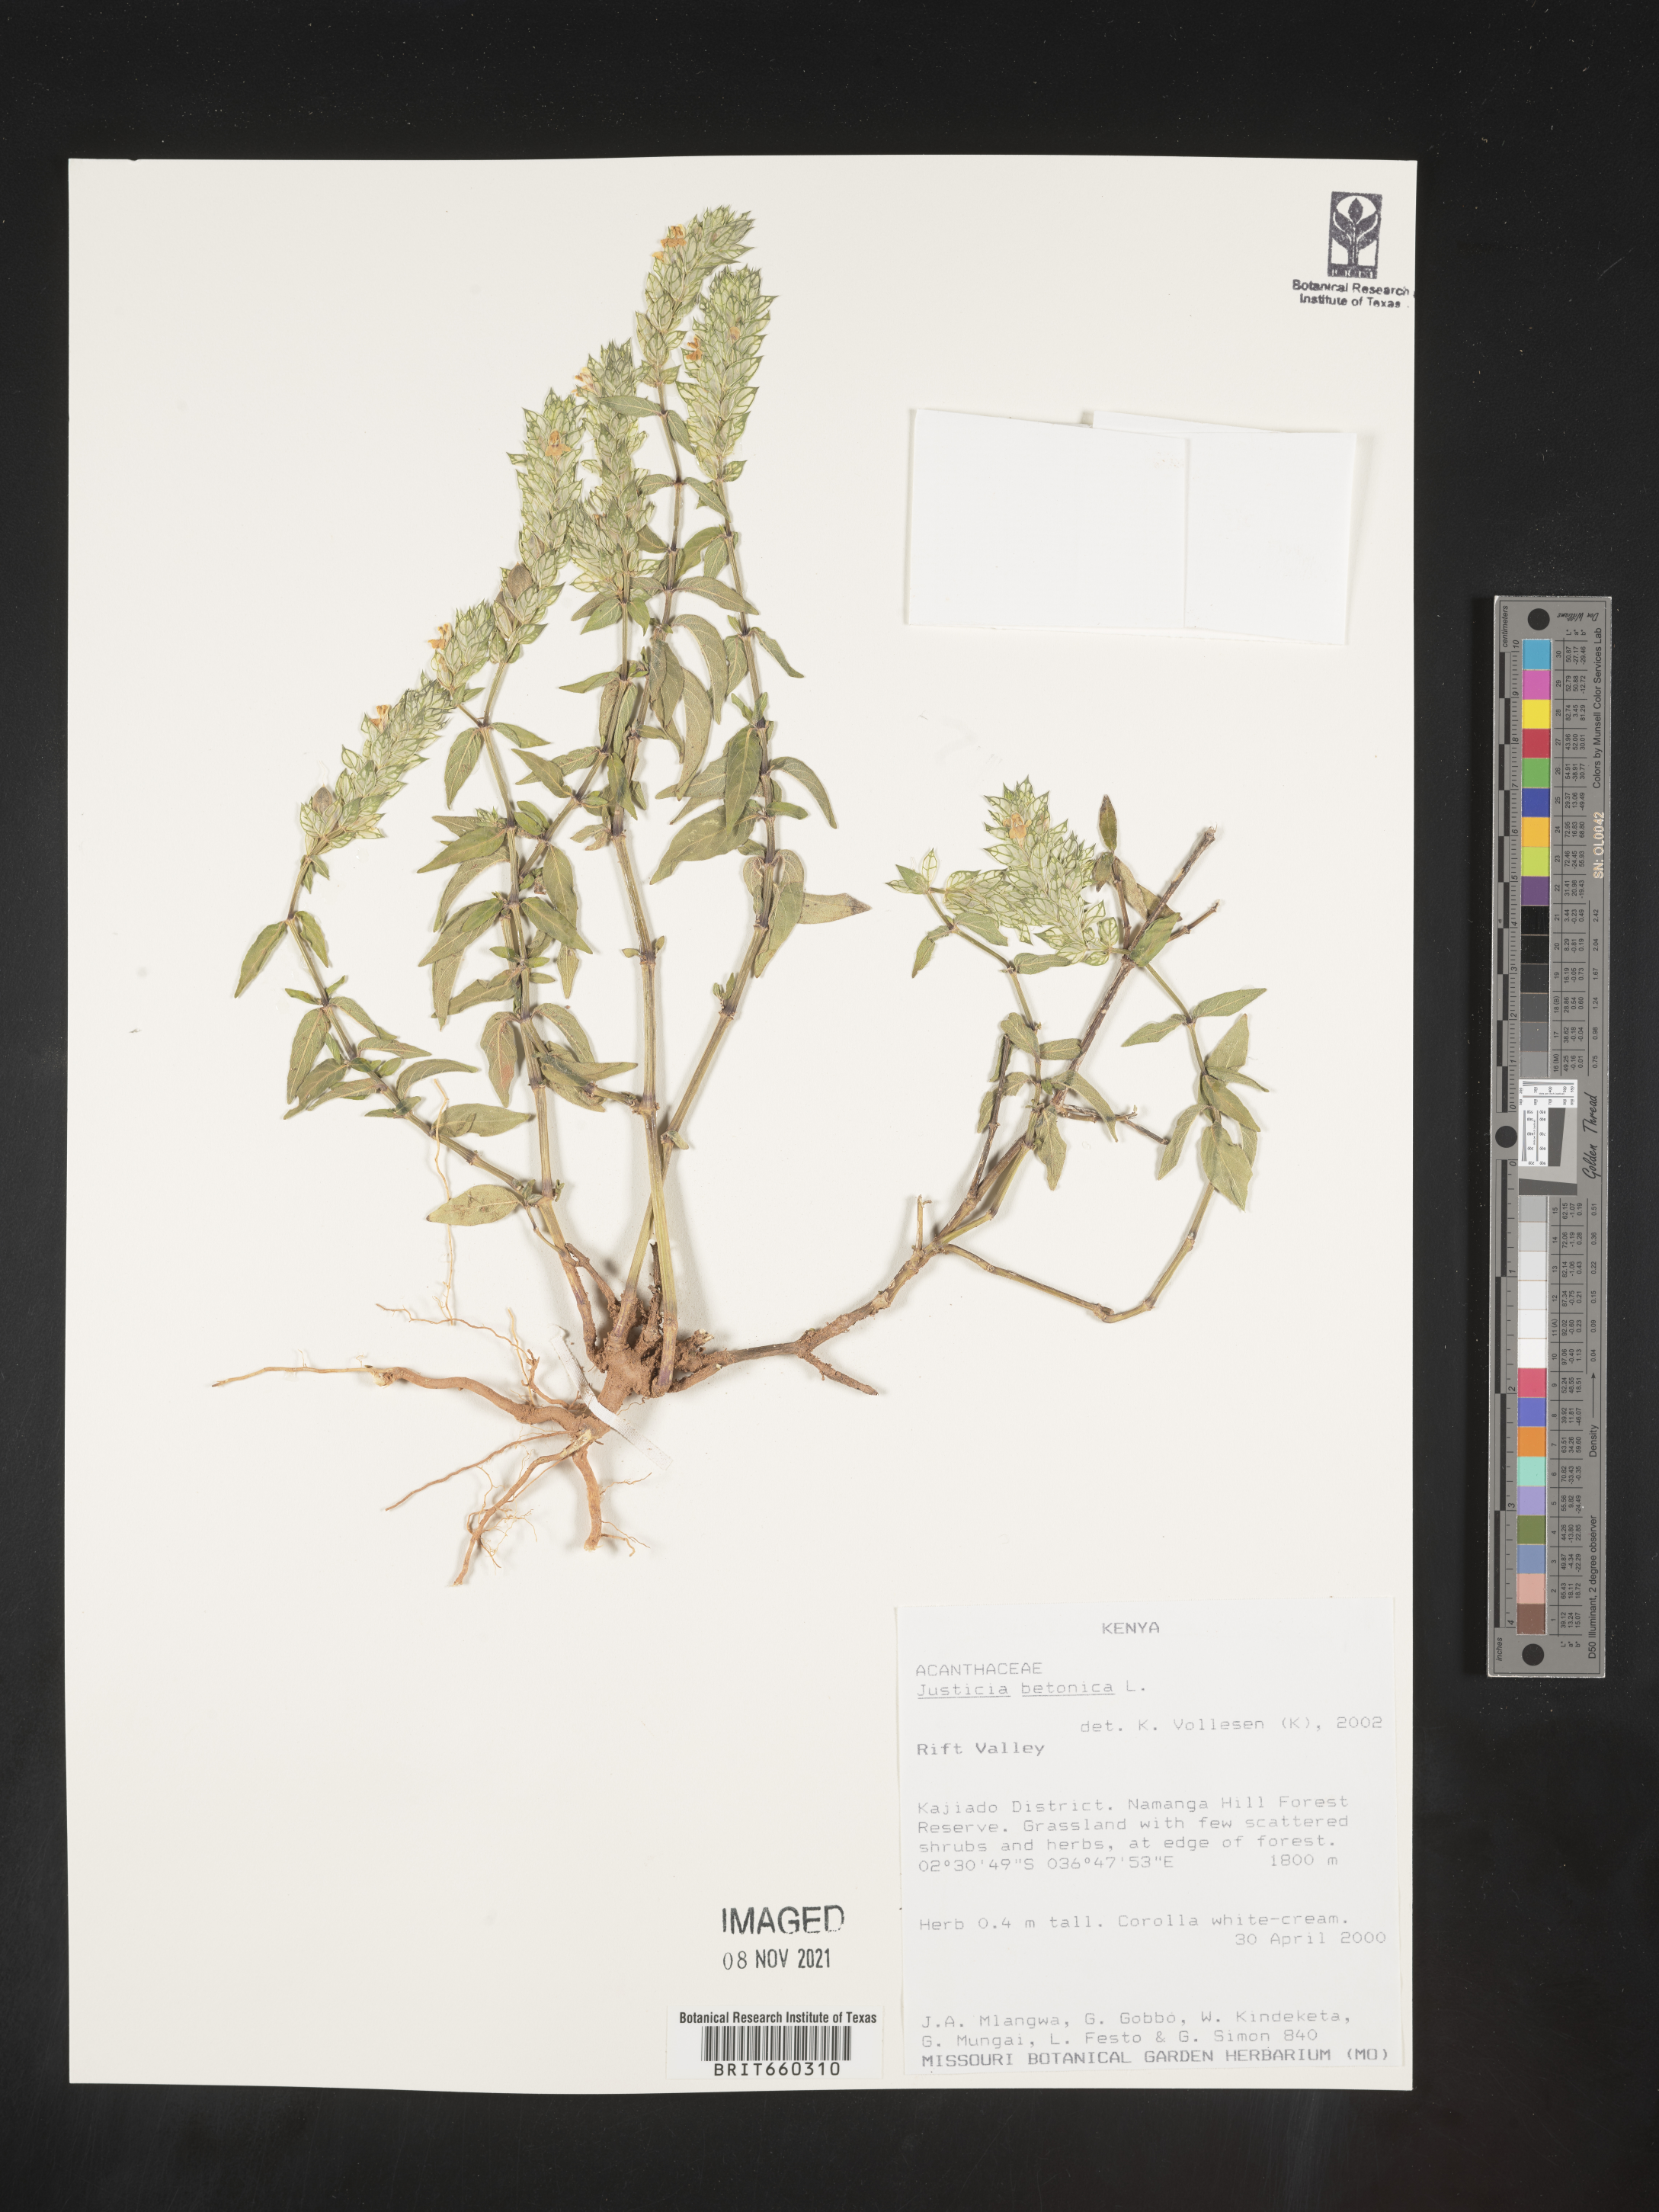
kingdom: Plantae
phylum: Tracheophyta
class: Magnoliopsida
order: Lamiales
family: Acanthaceae
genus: Justicia
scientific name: Justicia
